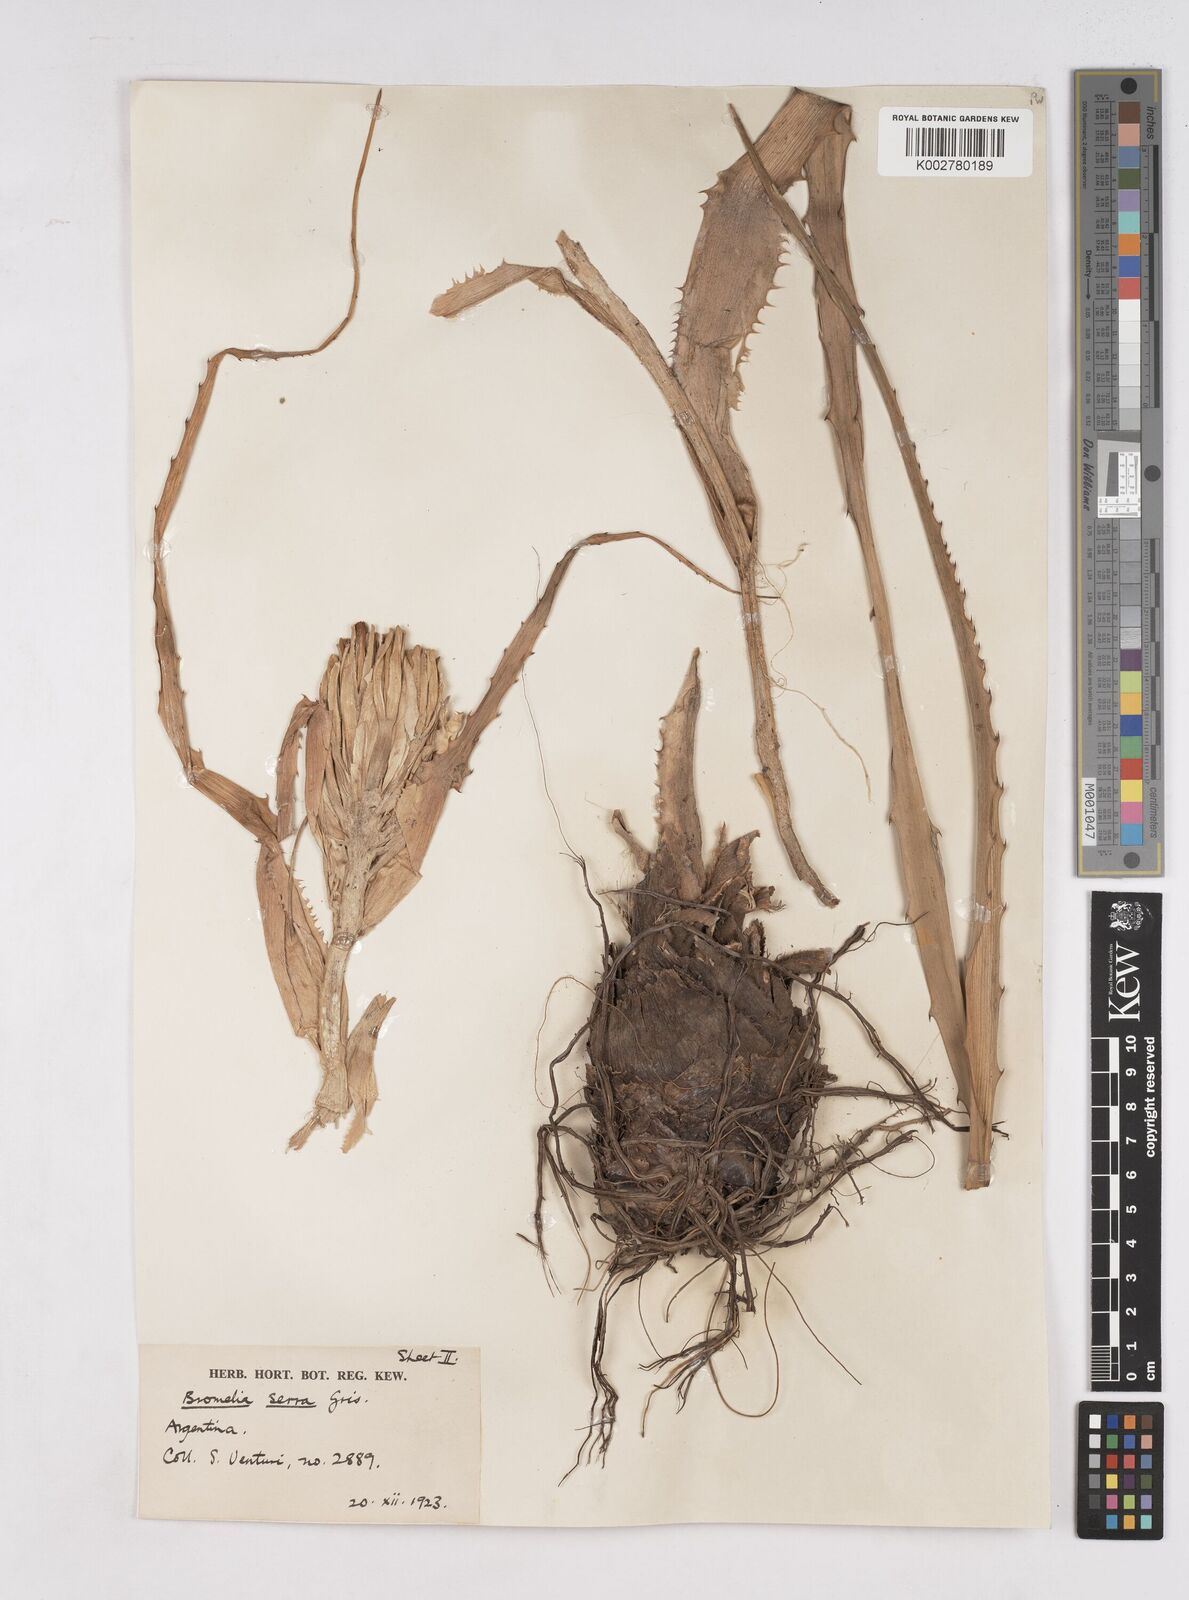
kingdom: Plantae
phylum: Tracheophyta
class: Liliopsida
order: Poales
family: Bromeliaceae
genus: Bromelia
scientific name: Bromelia serra
